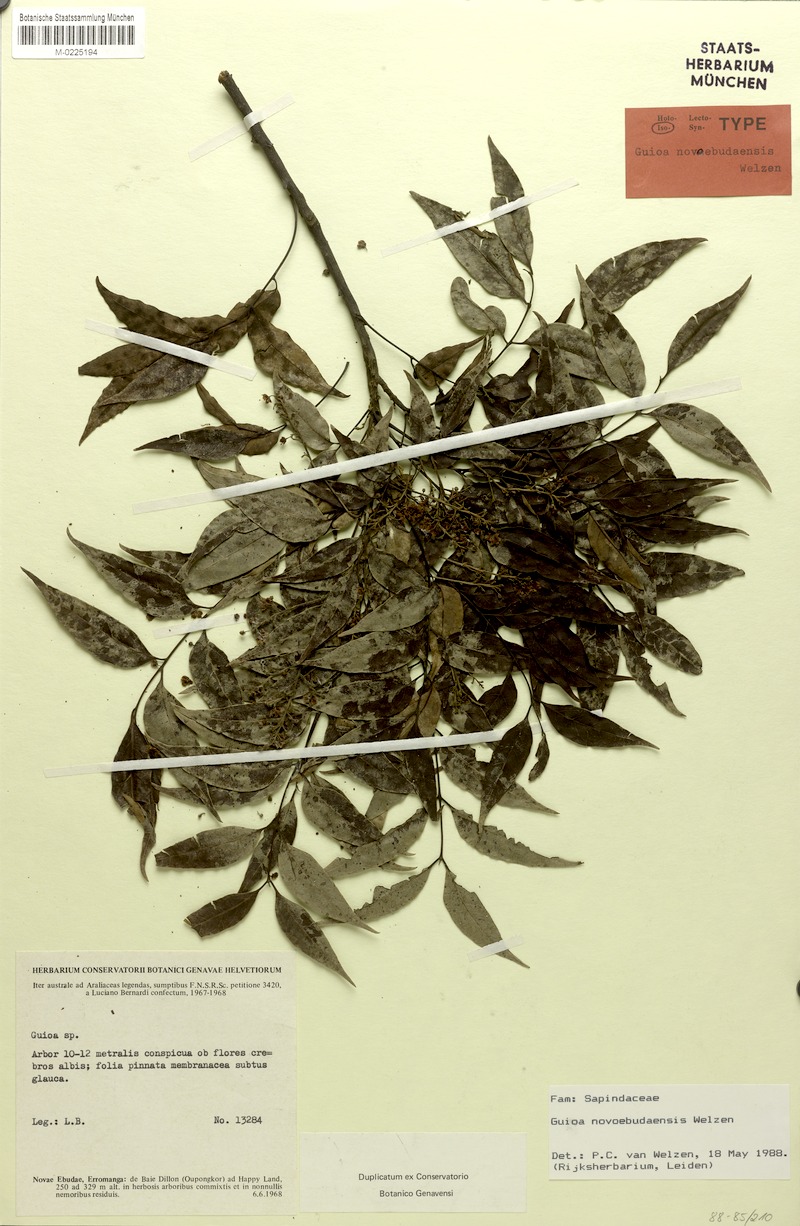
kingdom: Plantae
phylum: Tracheophyta
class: Magnoliopsida
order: Sapindales
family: Sapindaceae
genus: Guioa
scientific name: Guioa novoebudaensis
